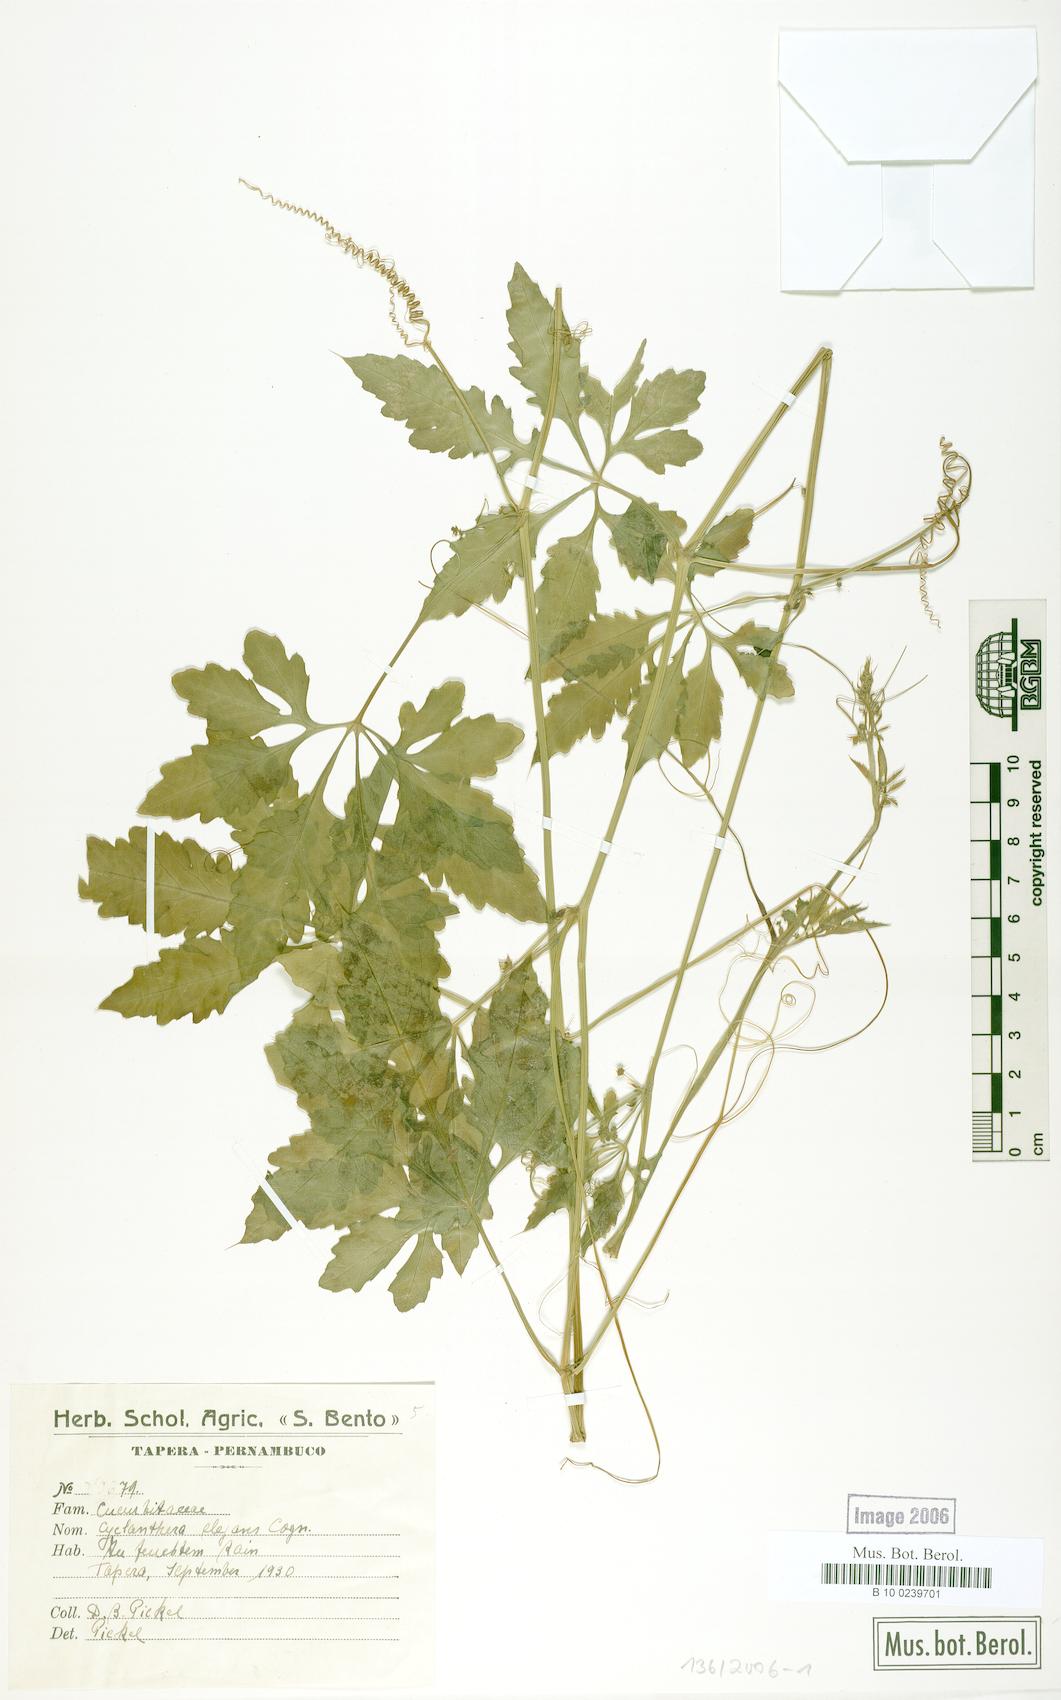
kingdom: Plantae
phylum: Tracheophyta
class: Magnoliopsida
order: Cucurbitales
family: Cucurbitaceae
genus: Cyclanthera
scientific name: Cyclanthera tenuisepala
